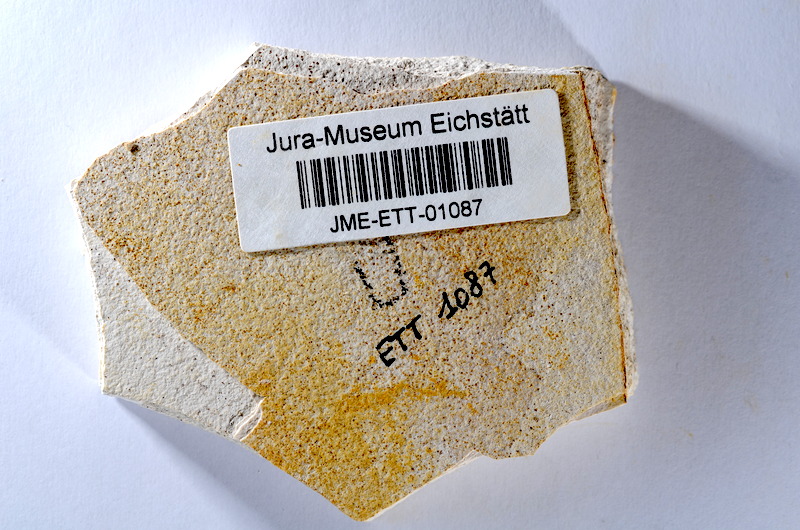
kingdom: Animalia
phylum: Chordata
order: Salmoniformes
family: Orthogonikleithridae
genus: Orthogonikleithrus
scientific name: Orthogonikleithrus hoelli
